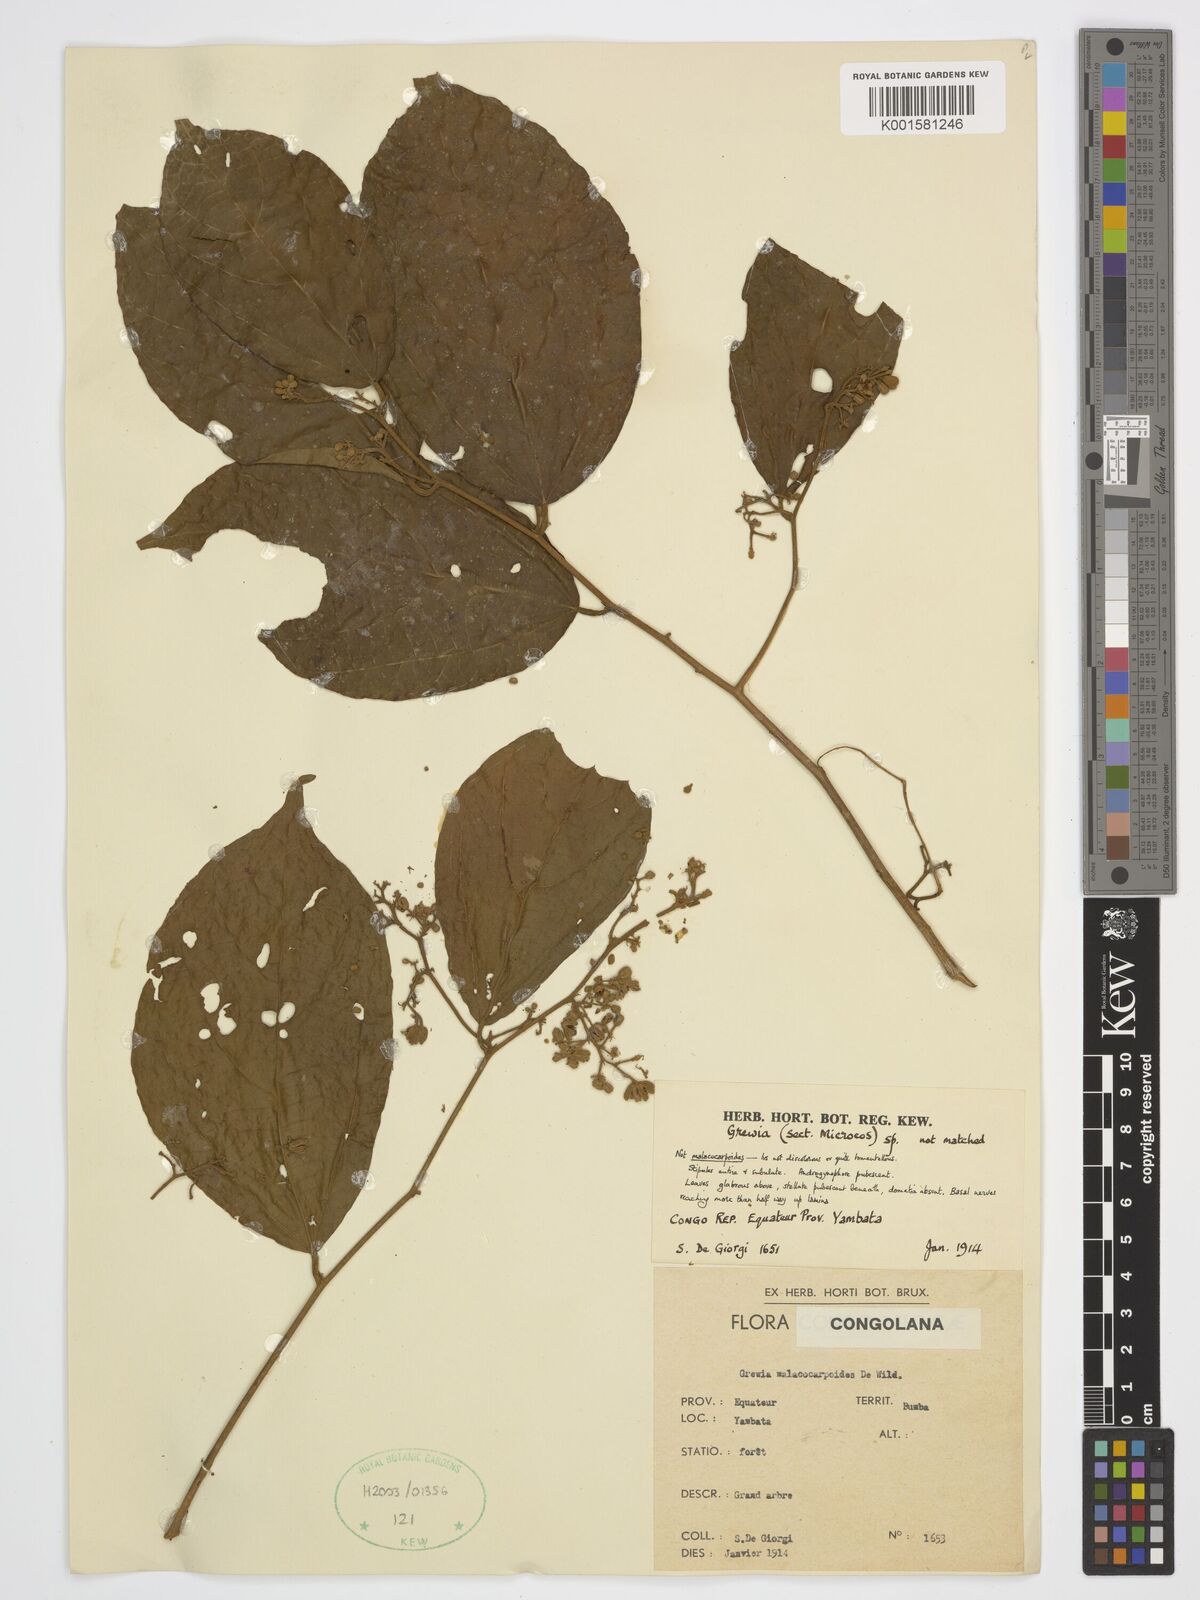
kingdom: Plantae
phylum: Tracheophyta
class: Magnoliopsida
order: Malvales
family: Malvaceae
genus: Microcos
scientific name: Microcos paniculata
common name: Microcos
